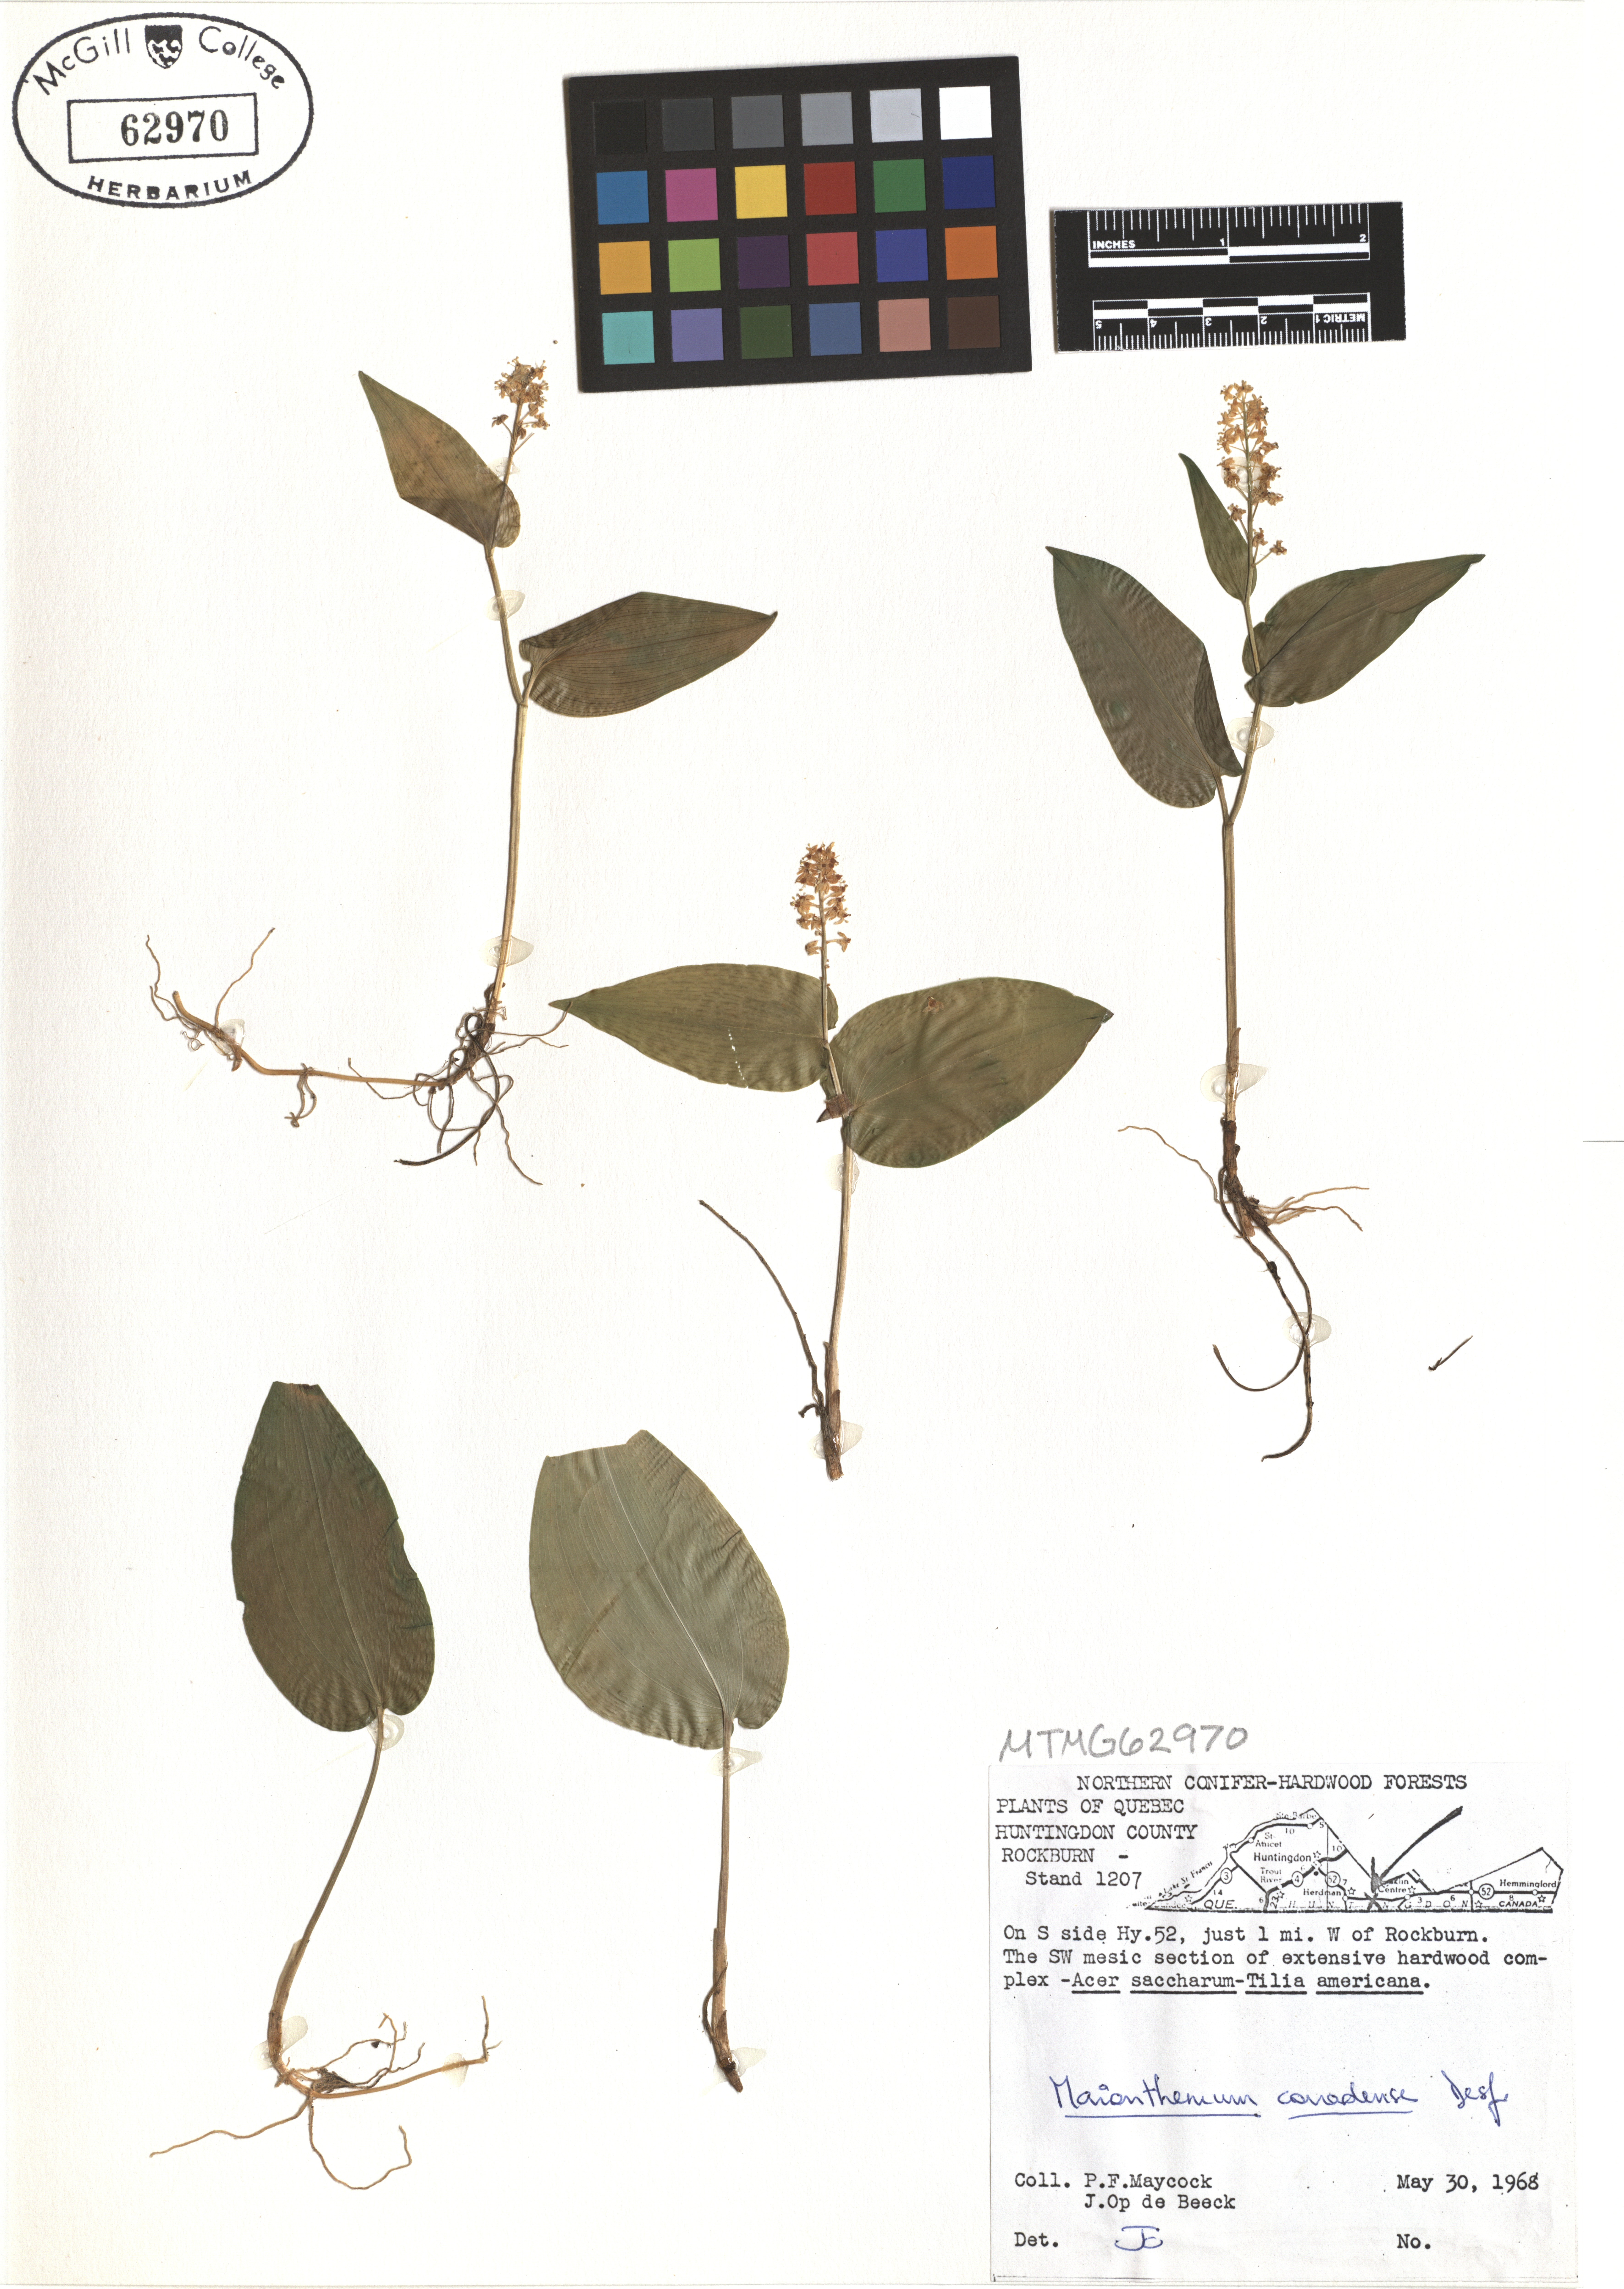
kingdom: Plantae
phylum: Tracheophyta
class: Liliopsida
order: Asparagales
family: Asparagaceae
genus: Maianthemum
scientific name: Maianthemum canadense
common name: False lily-of-the-valley
